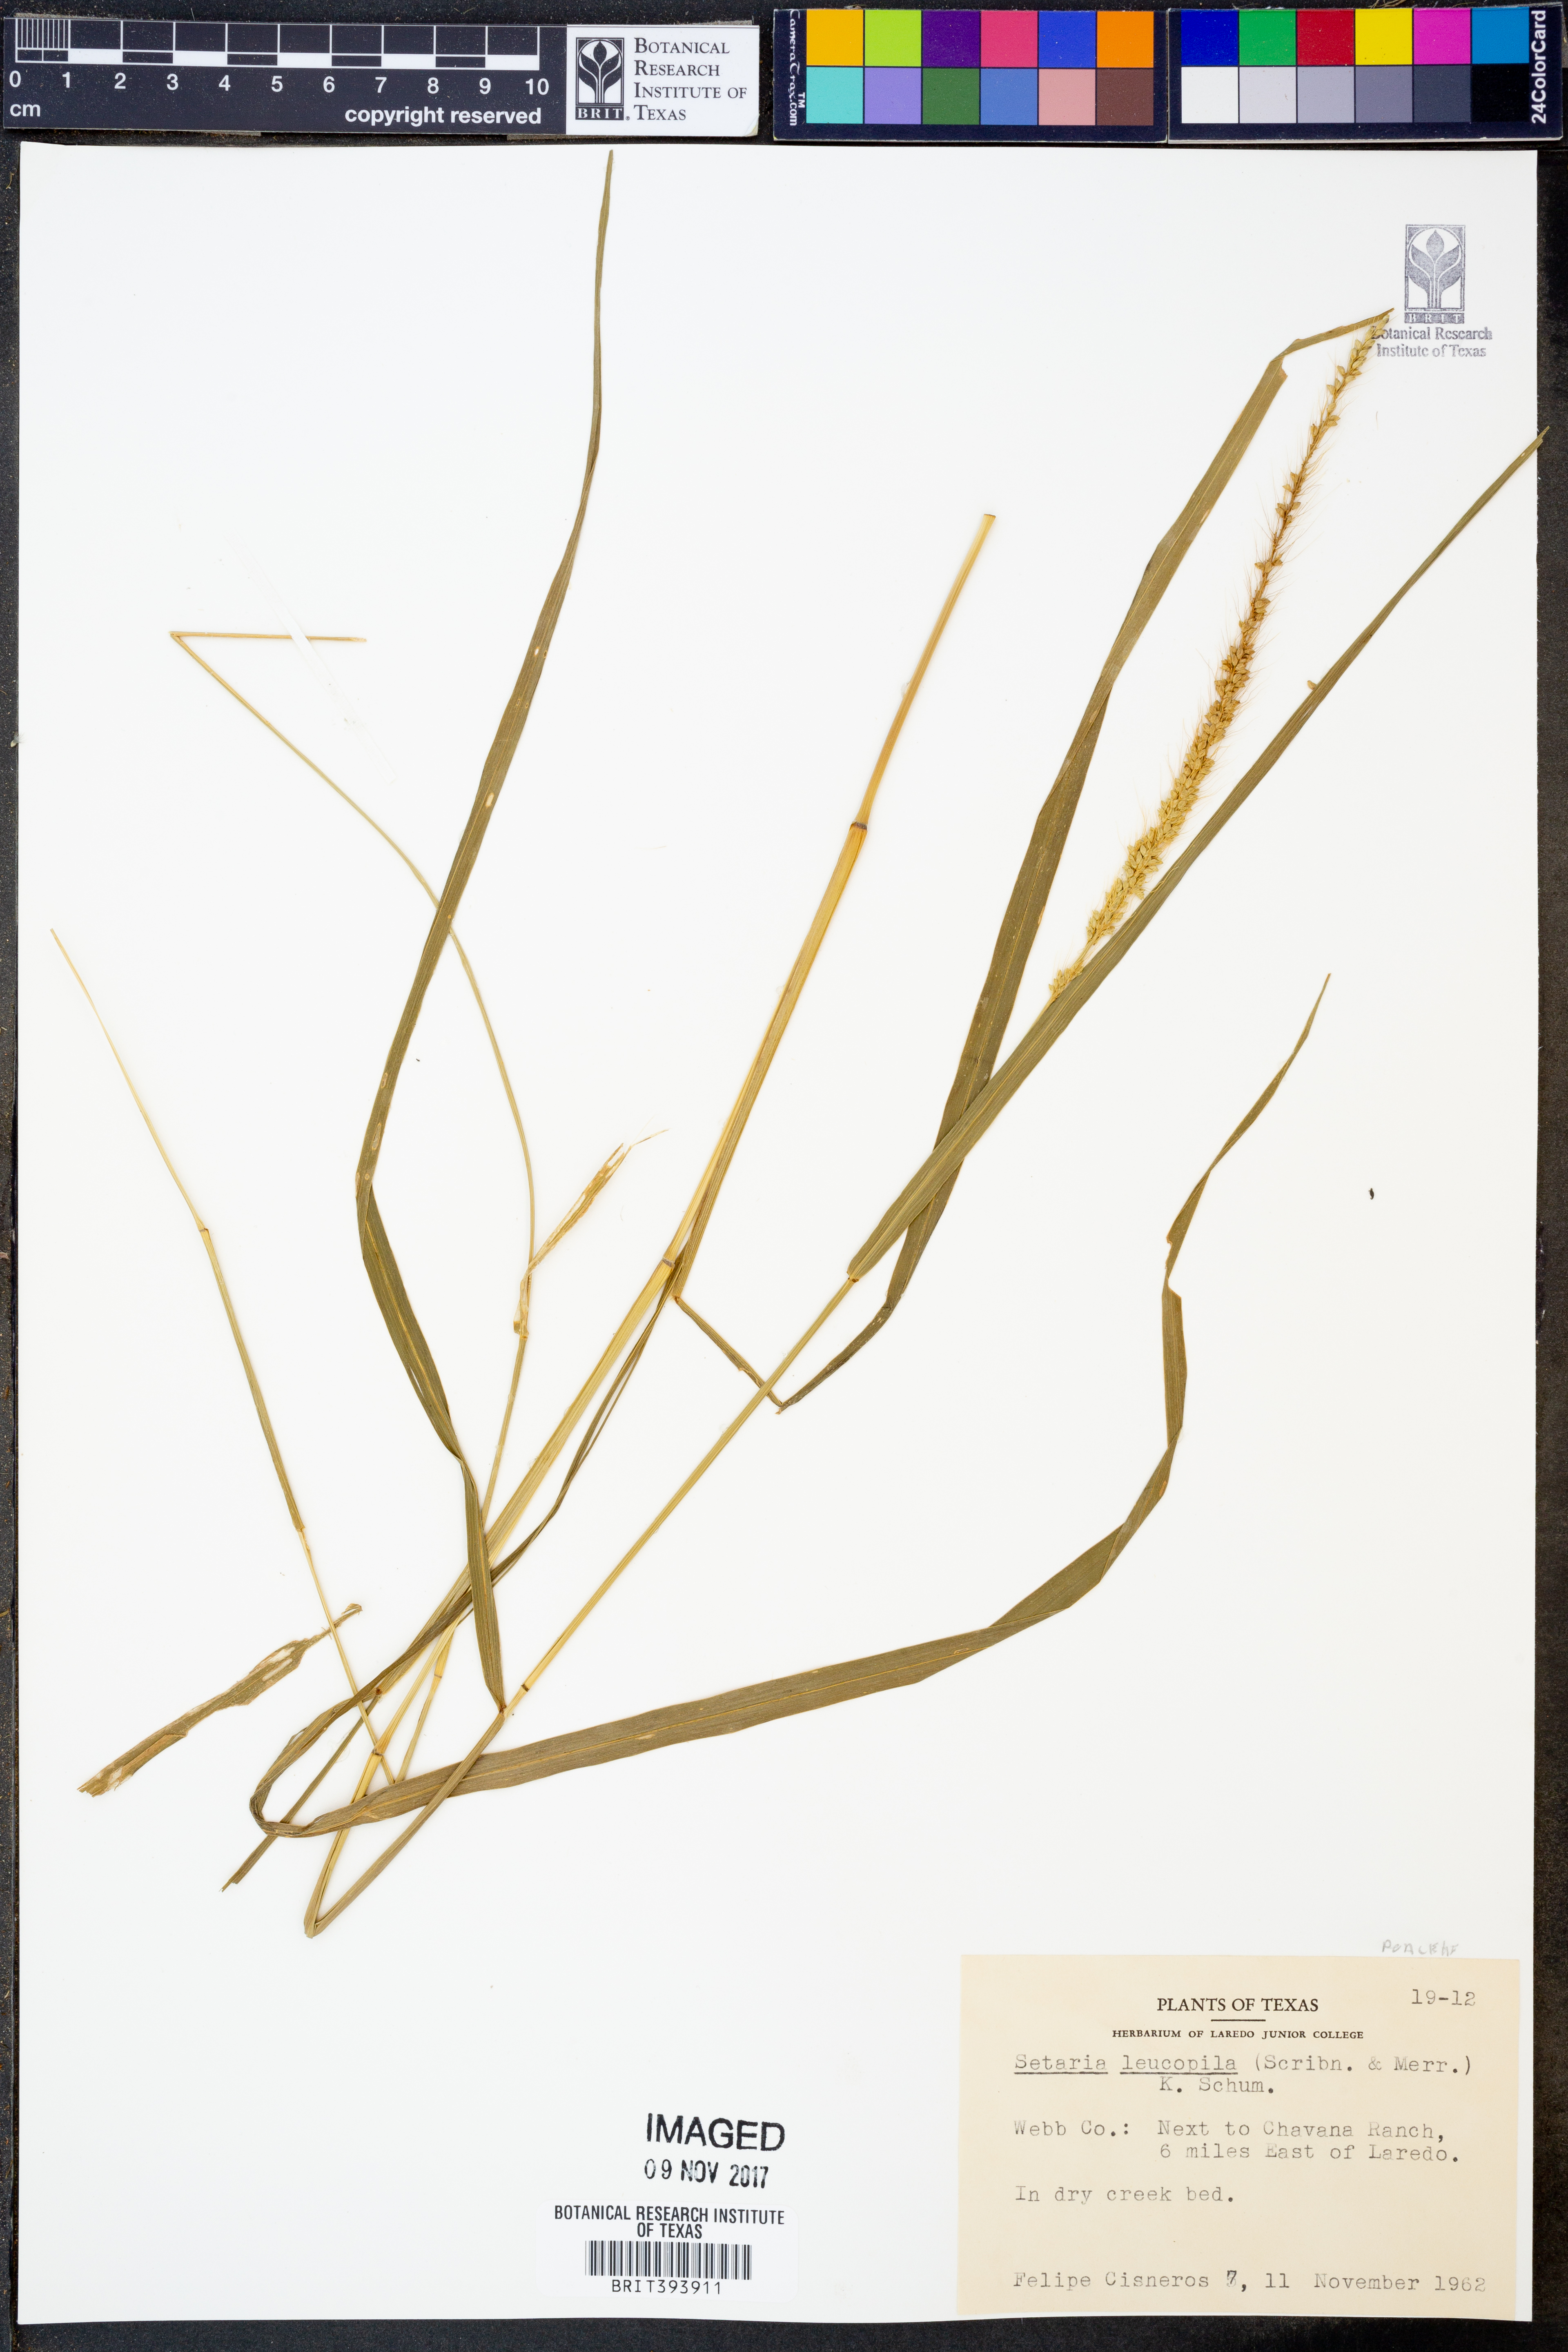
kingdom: Plantae
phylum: Tracheophyta
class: Liliopsida
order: Poales
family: Poaceae
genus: Setaria
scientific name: Setaria leucopila
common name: Plains bristle grass
